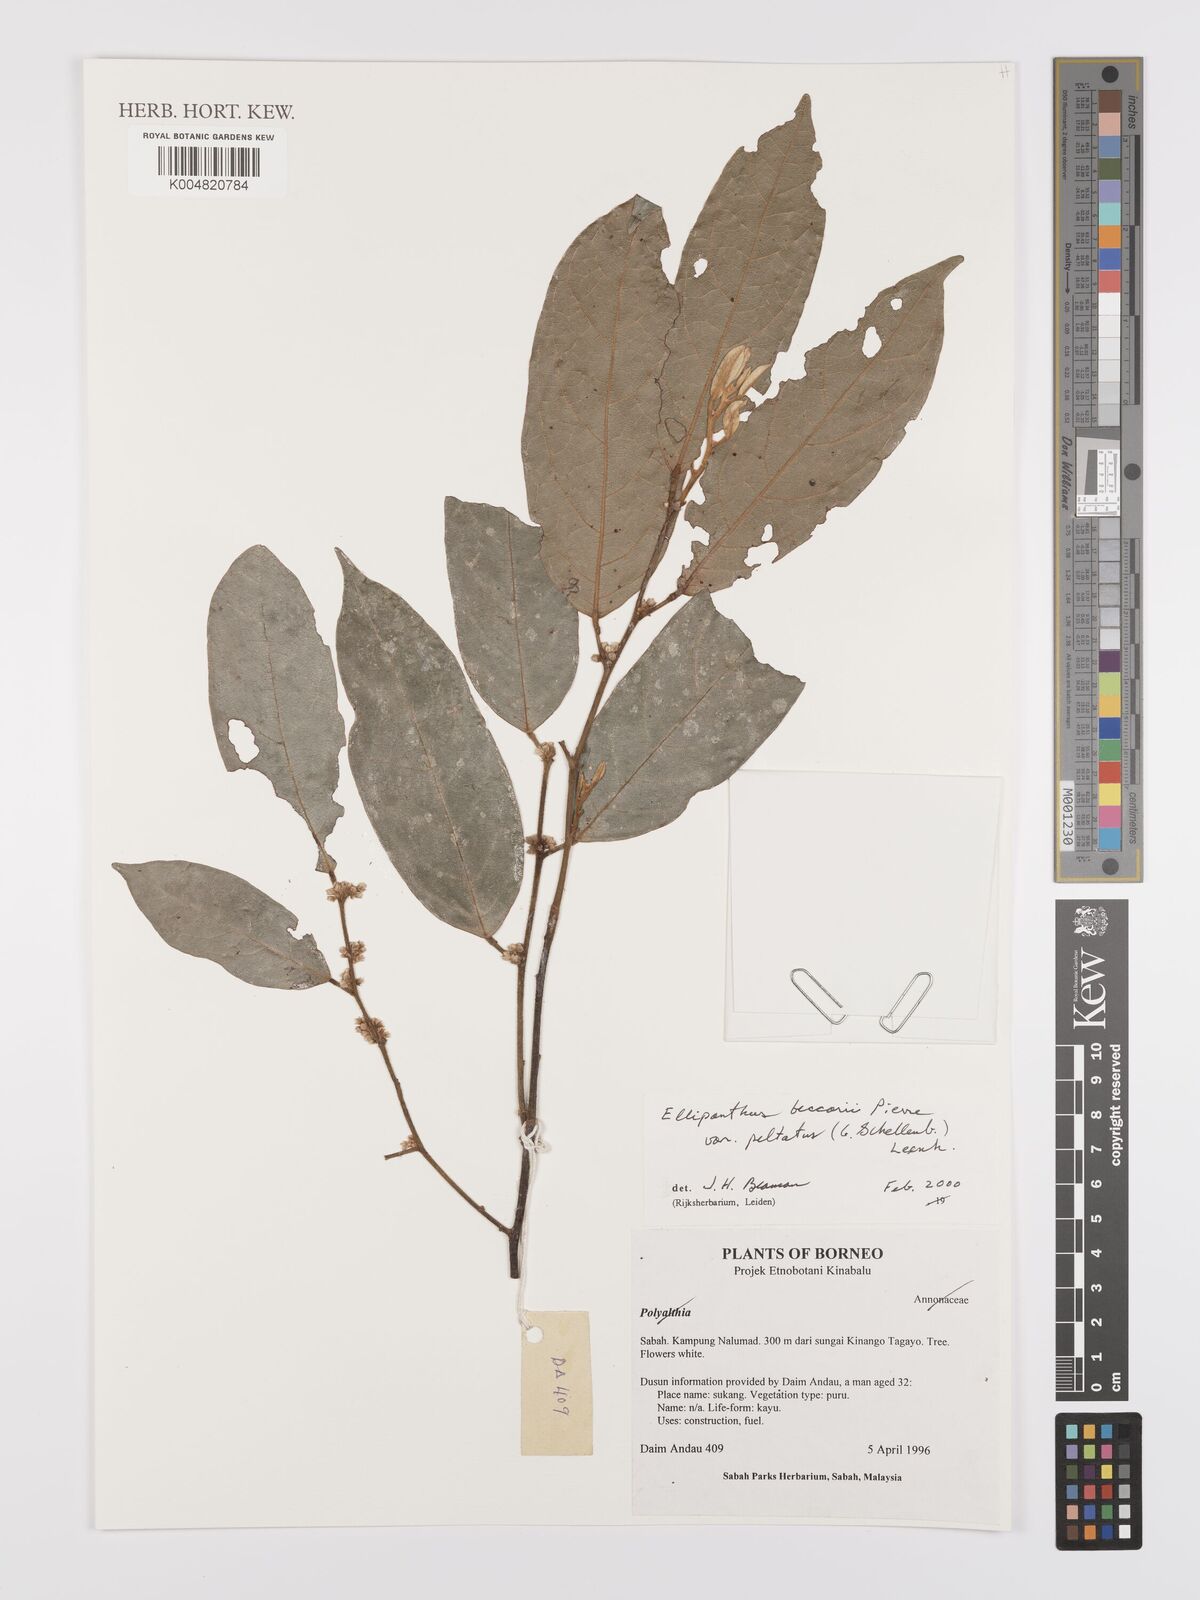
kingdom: Plantae
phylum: Tracheophyta
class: Magnoliopsida
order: Oxalidales
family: Connaraceae
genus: Ellipanthus
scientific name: Ellipanthus beccarii
